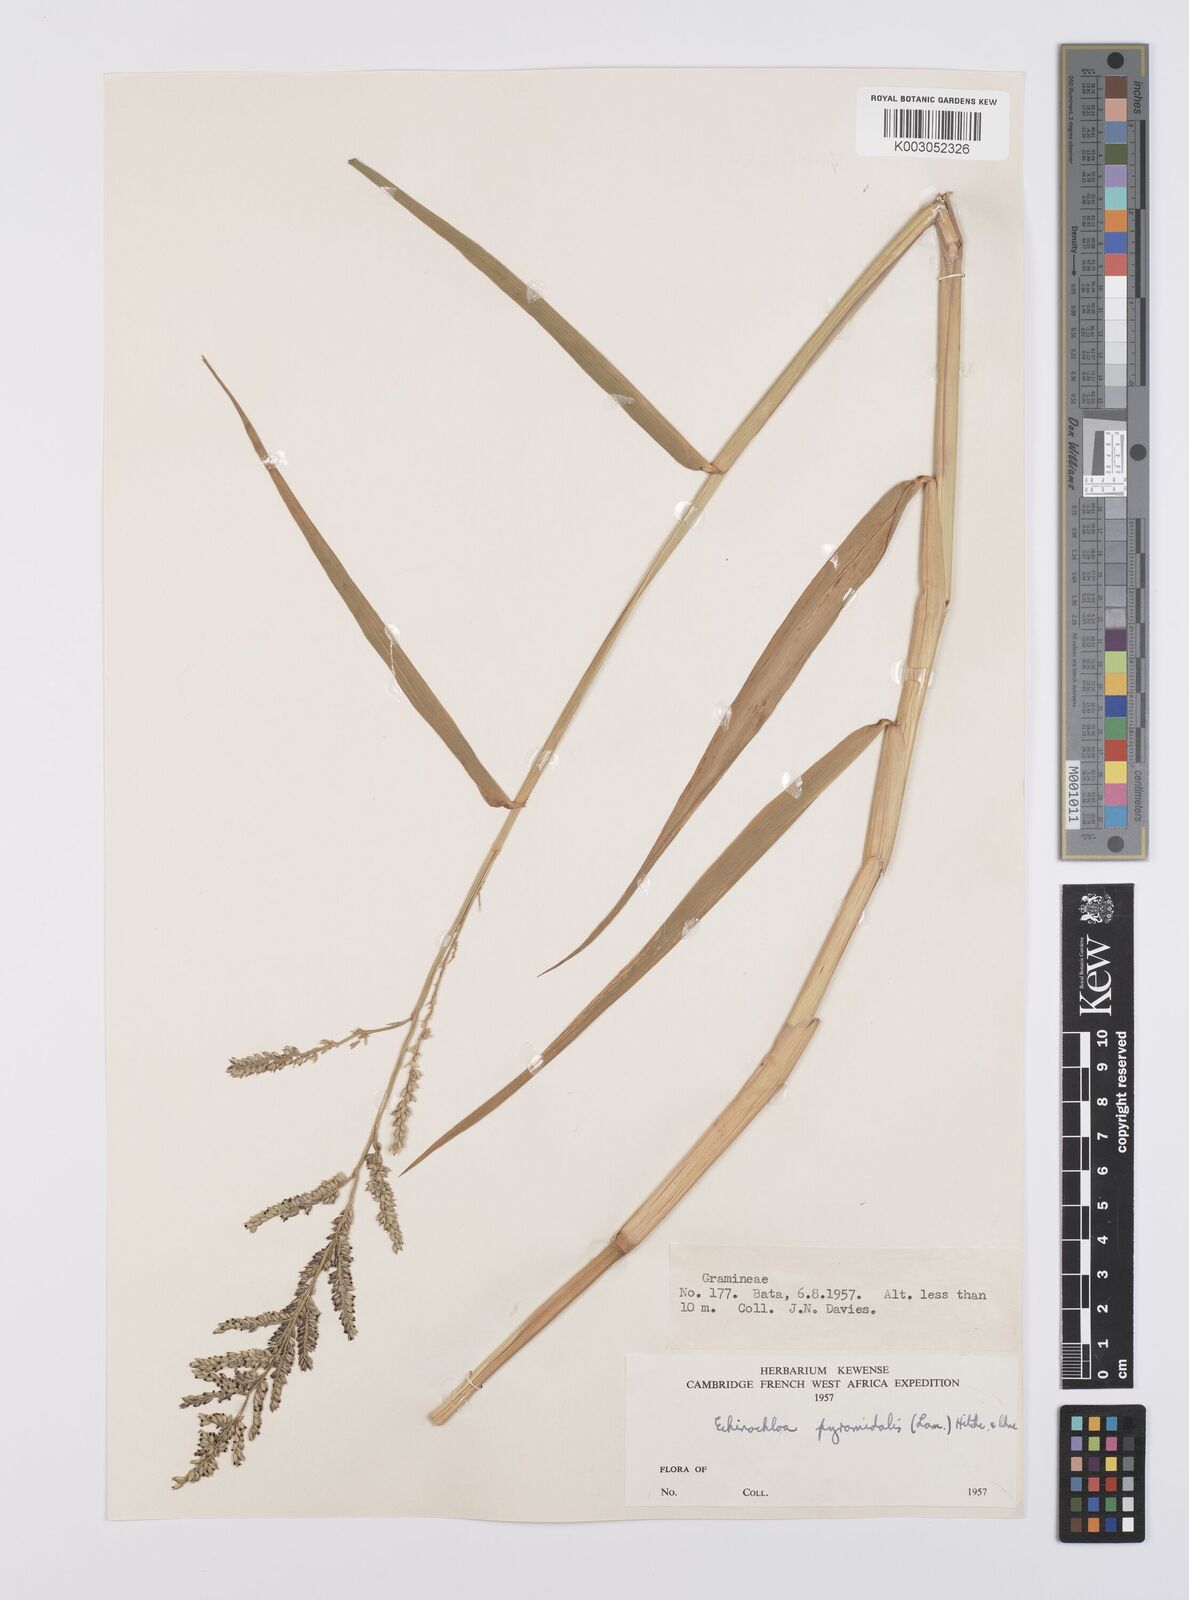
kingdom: Plantae
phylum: Tracheophyta
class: Liliopsida
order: Poales
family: Poaceae
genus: Urochloa
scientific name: Urochloa mutica
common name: Para grass
